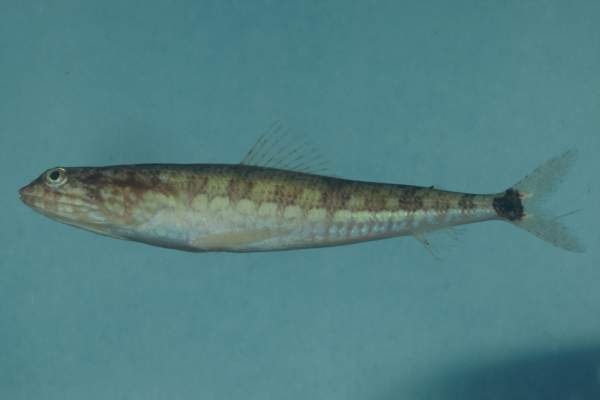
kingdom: Animalia
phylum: Chordata
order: Aulopiformes
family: Synodontidae
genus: Synodus
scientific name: Synodus jaculum
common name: Lighthouse lizardfish
